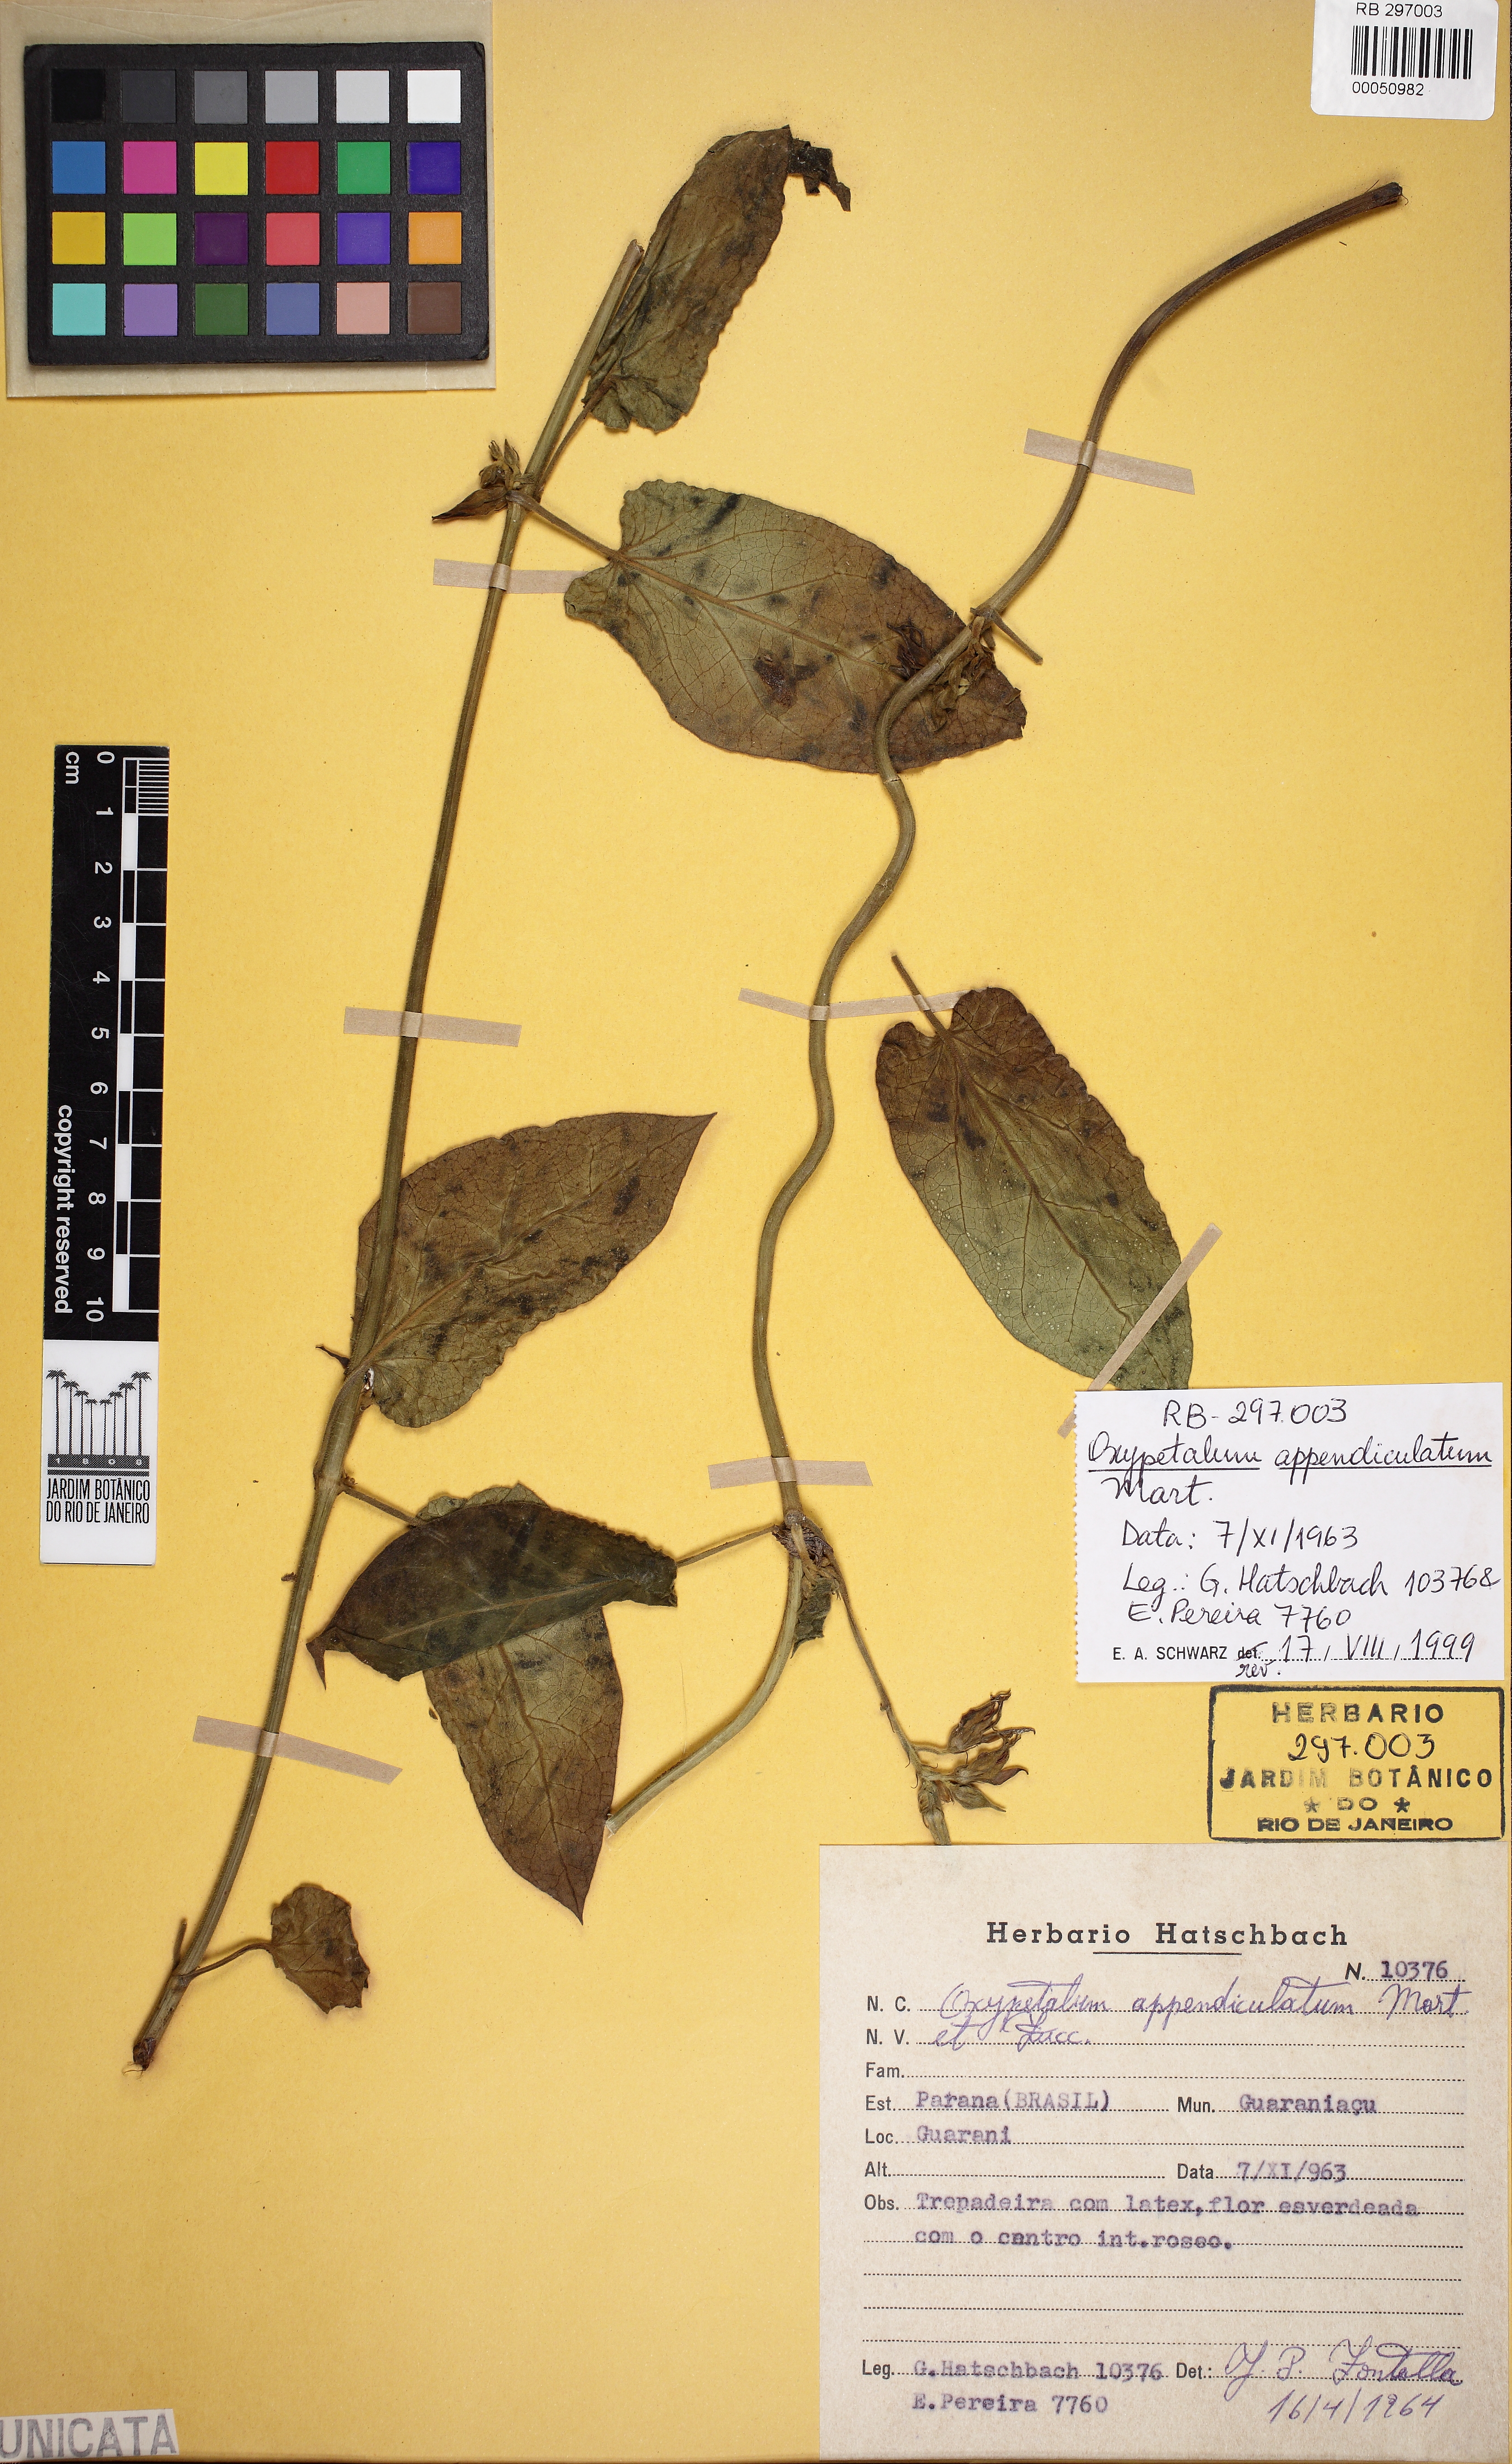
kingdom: Plantae
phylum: Tracheophyta
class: Magnoliopsida
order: Gentianales
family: Apocynaceae
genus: Oxypetalum
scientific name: Oxypetalum appendiculatum
